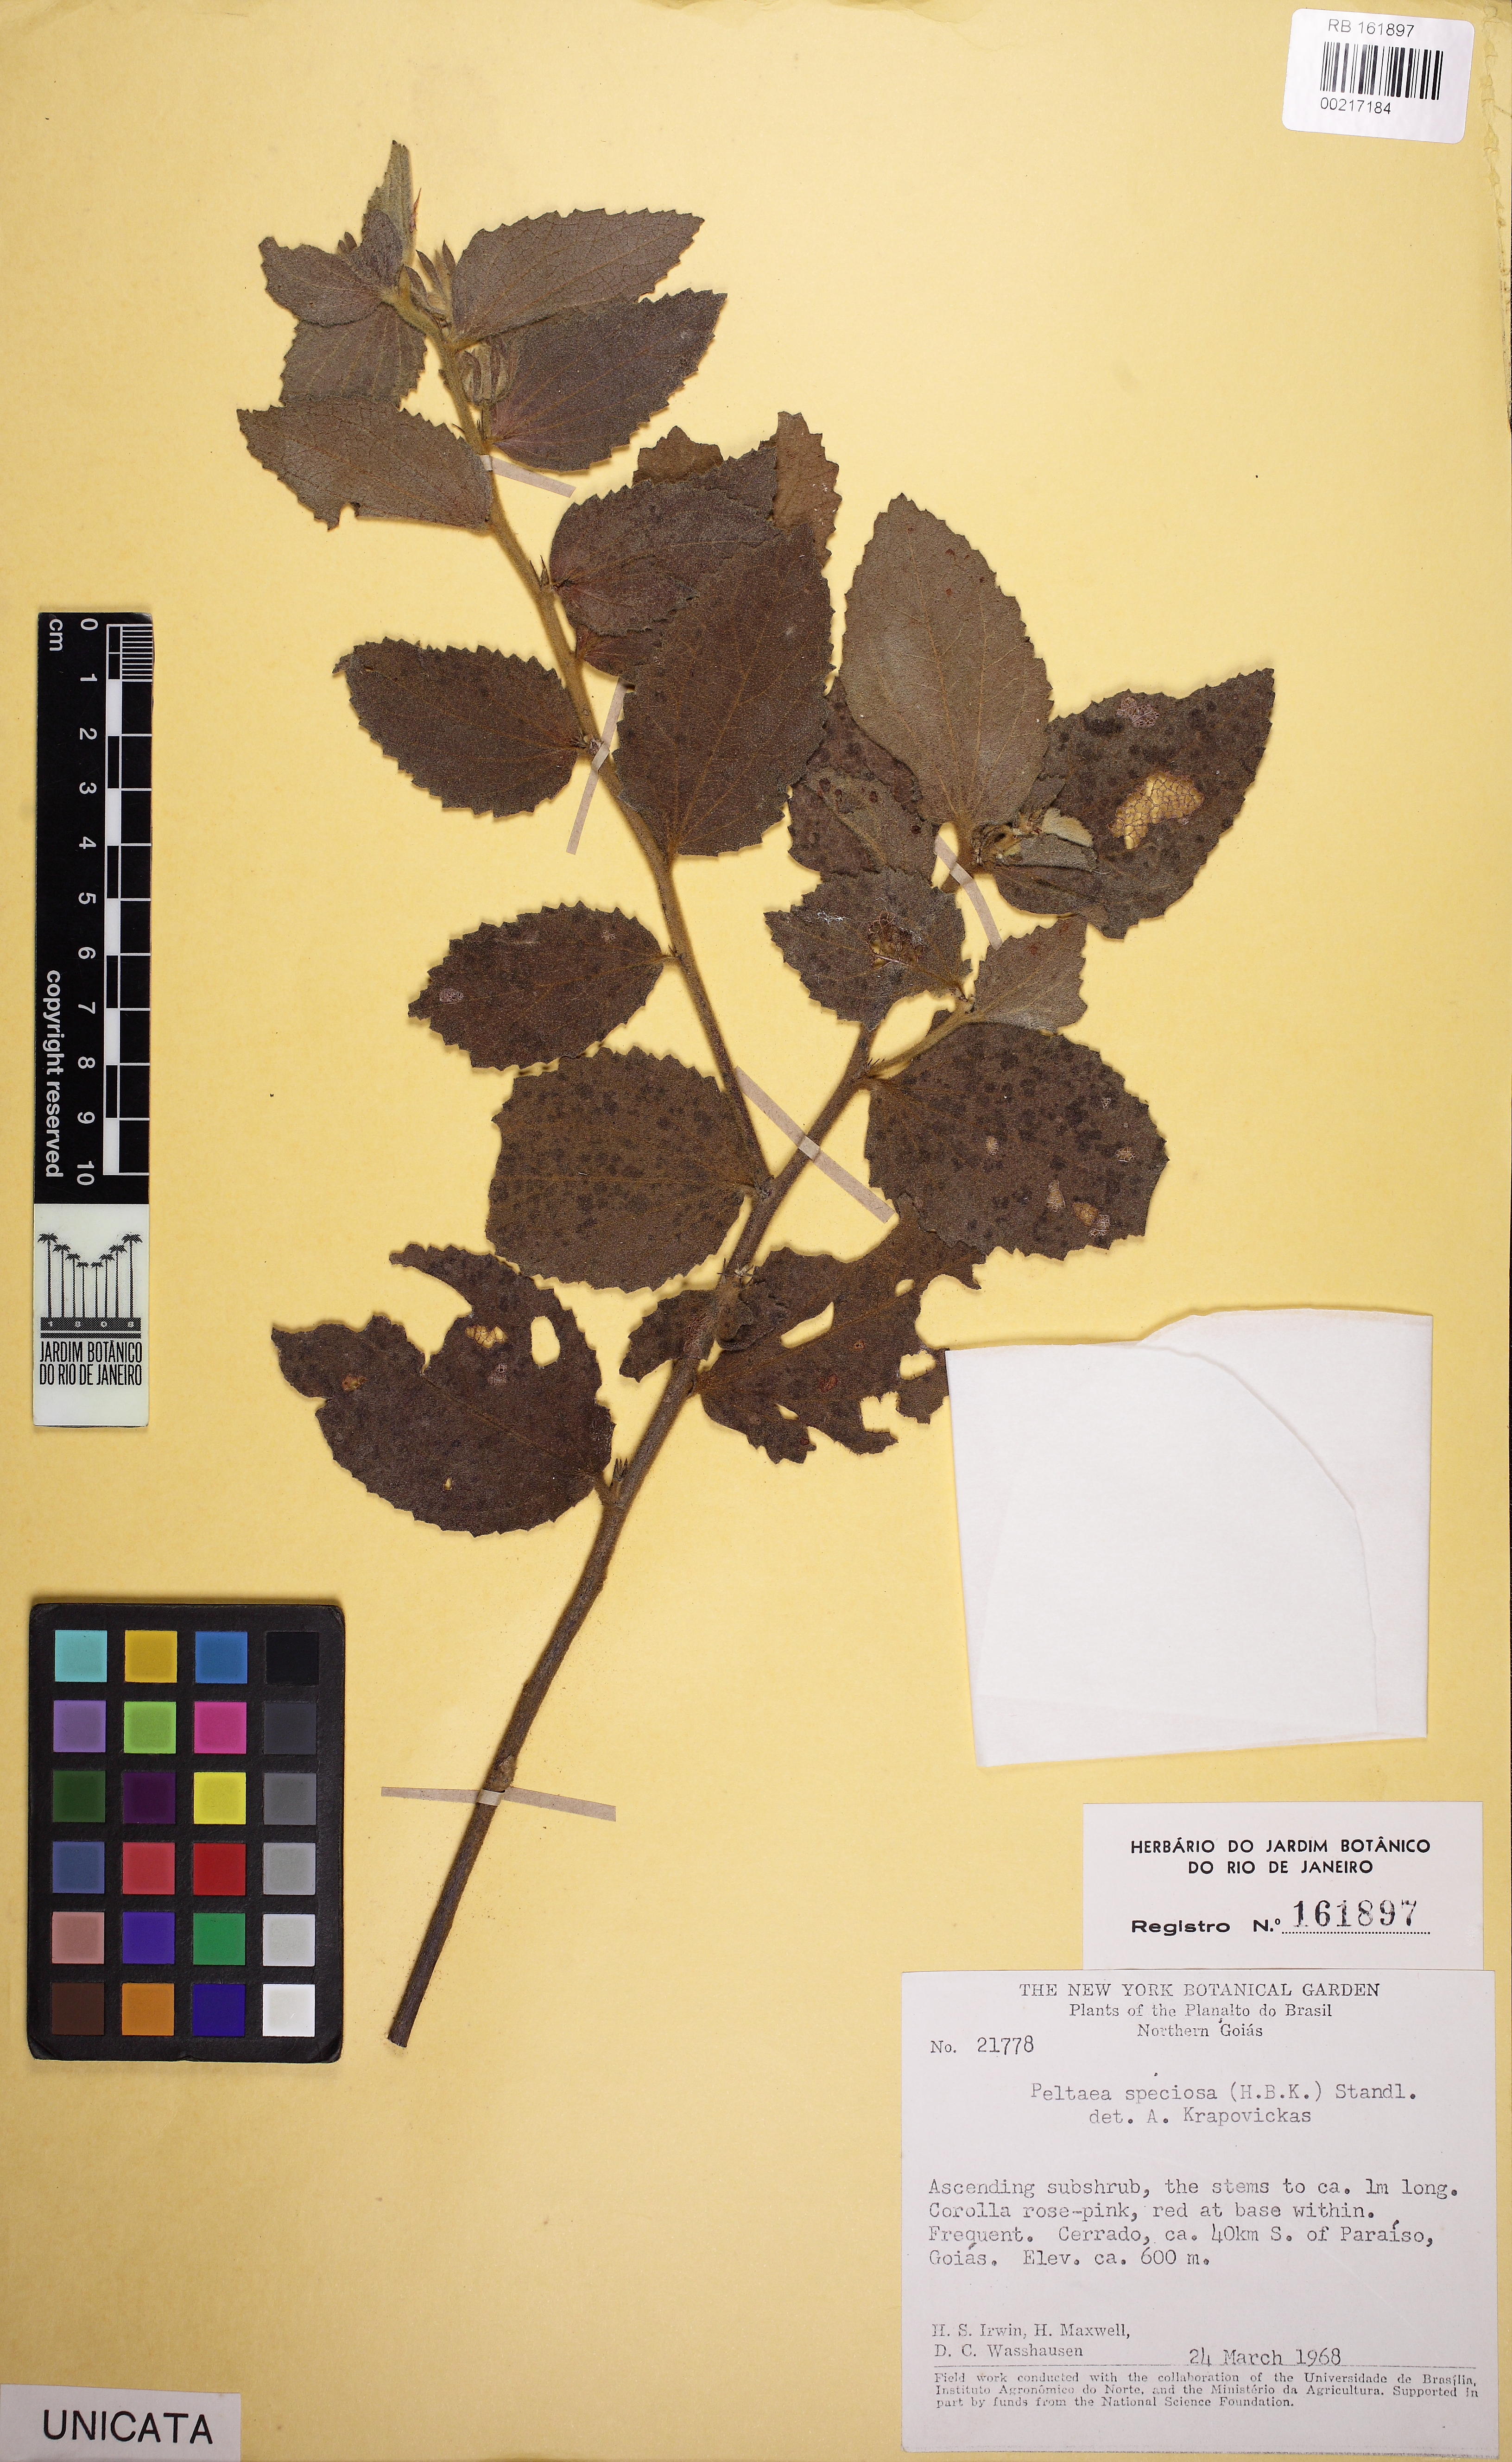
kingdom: Plantae
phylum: Tracheophyta
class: Magnoliopsida
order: Malvales
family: Malvaceae
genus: Peltaea
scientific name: Peltaea speciosa
